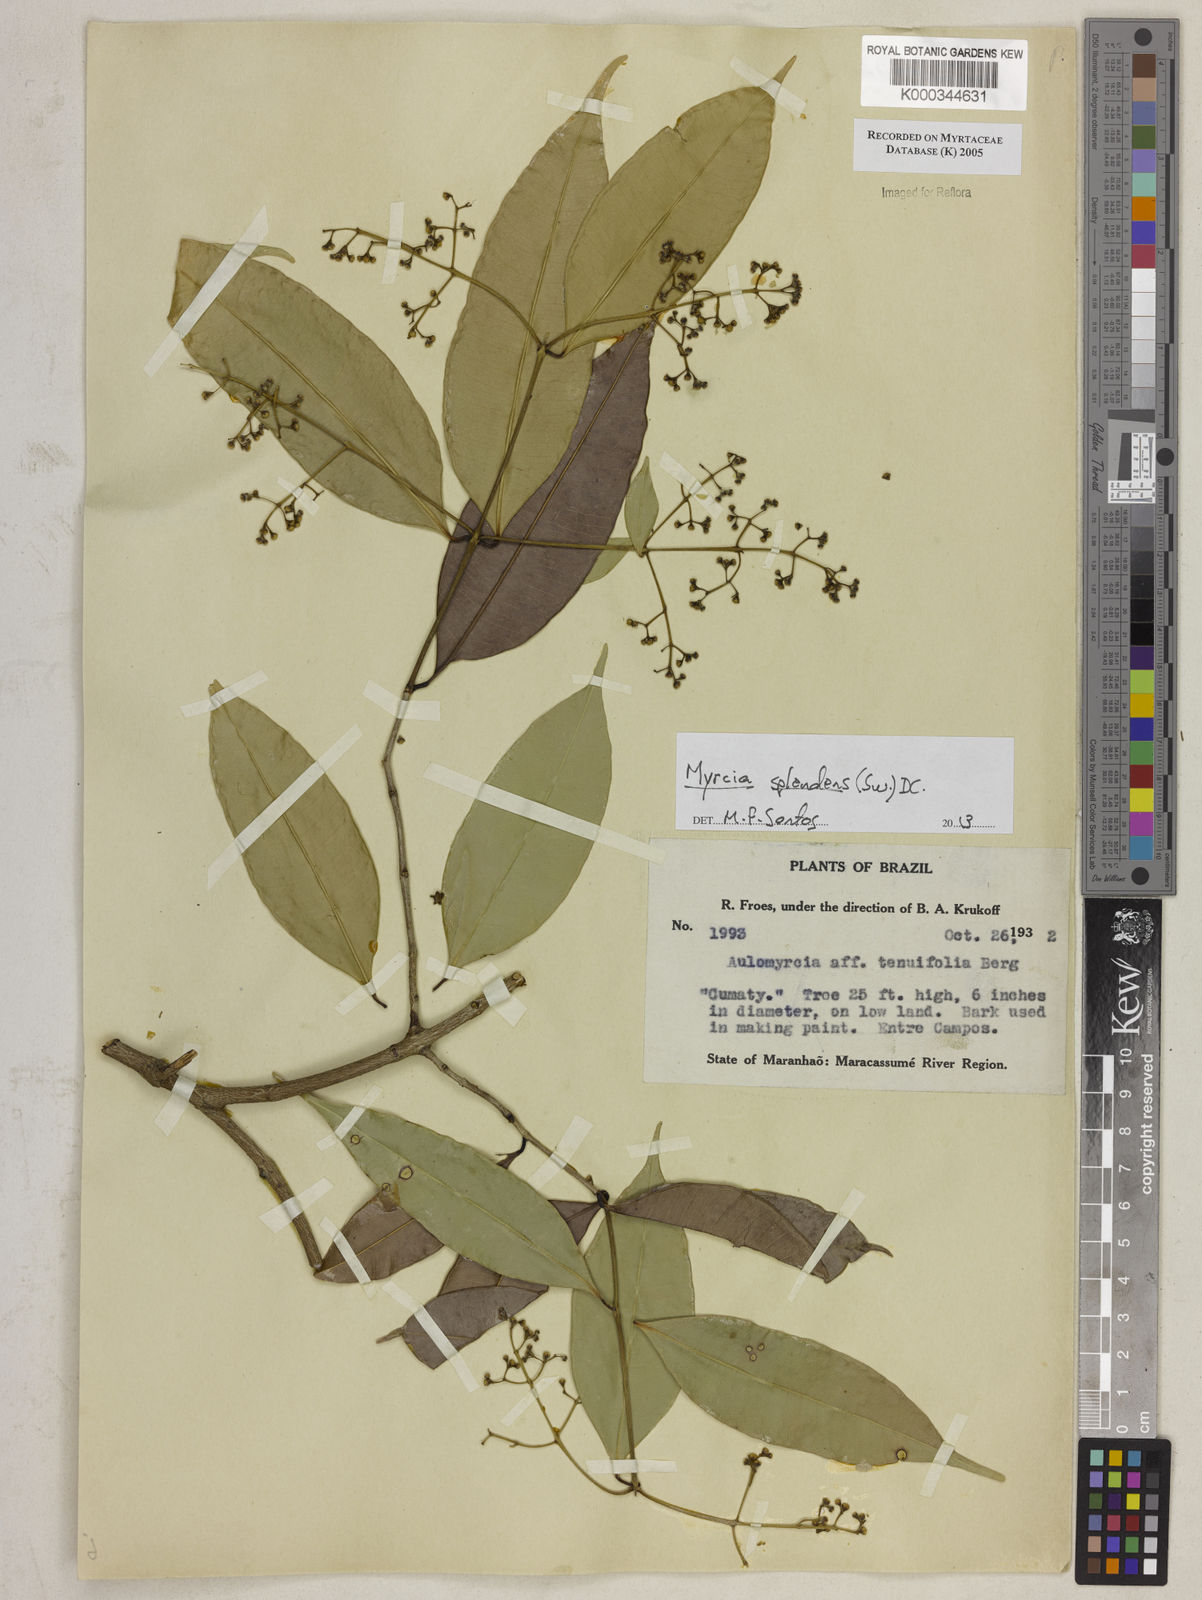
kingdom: Plantae
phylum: Tracheophyta
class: Magnoliopsida
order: Myrtales
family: Myrtaceae
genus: Myrcia
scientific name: Myrcia
